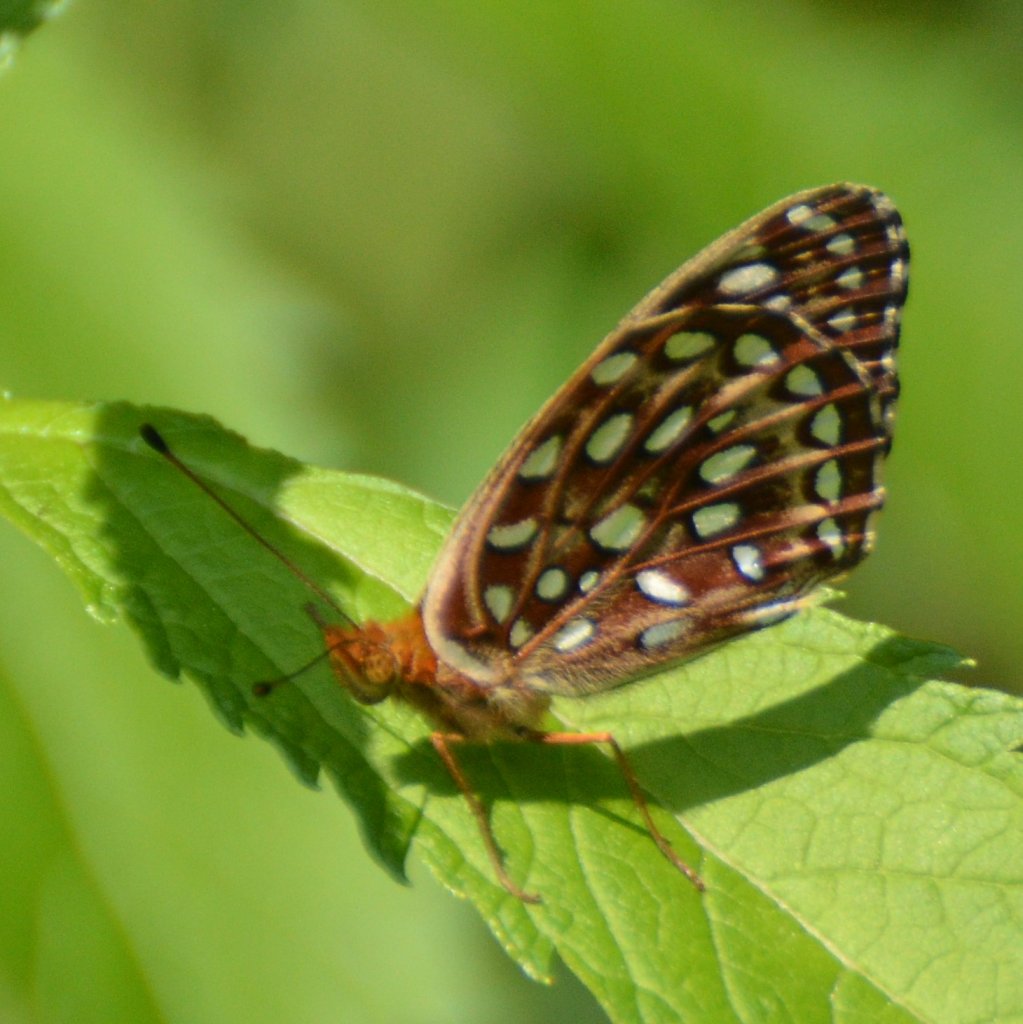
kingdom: Animalia
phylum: Arthropoda
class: Insecta
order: Lepidoptera
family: Nymphalidae
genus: Speyeria
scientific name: Speyeria aphrodite
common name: Aphrodite Fritillary
